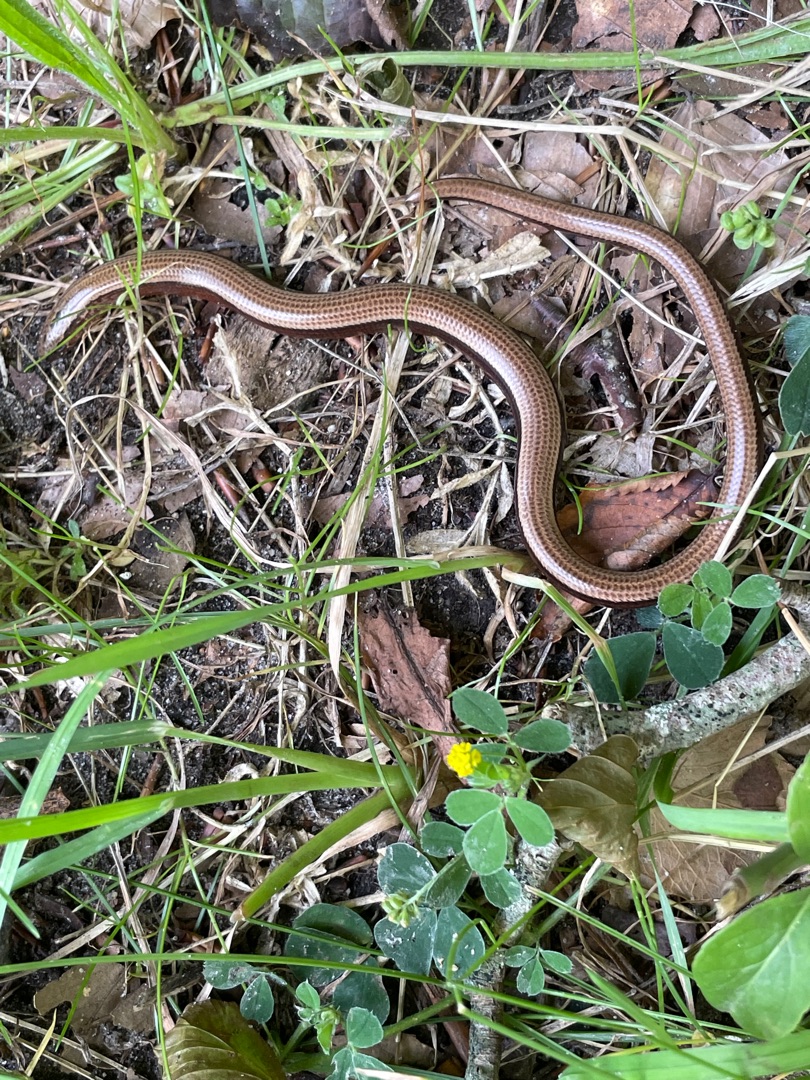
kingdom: Animalia
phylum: Chordata
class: Squamata
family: Anguidae
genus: Anguis
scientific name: Anguis fragilis
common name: Stålorm
